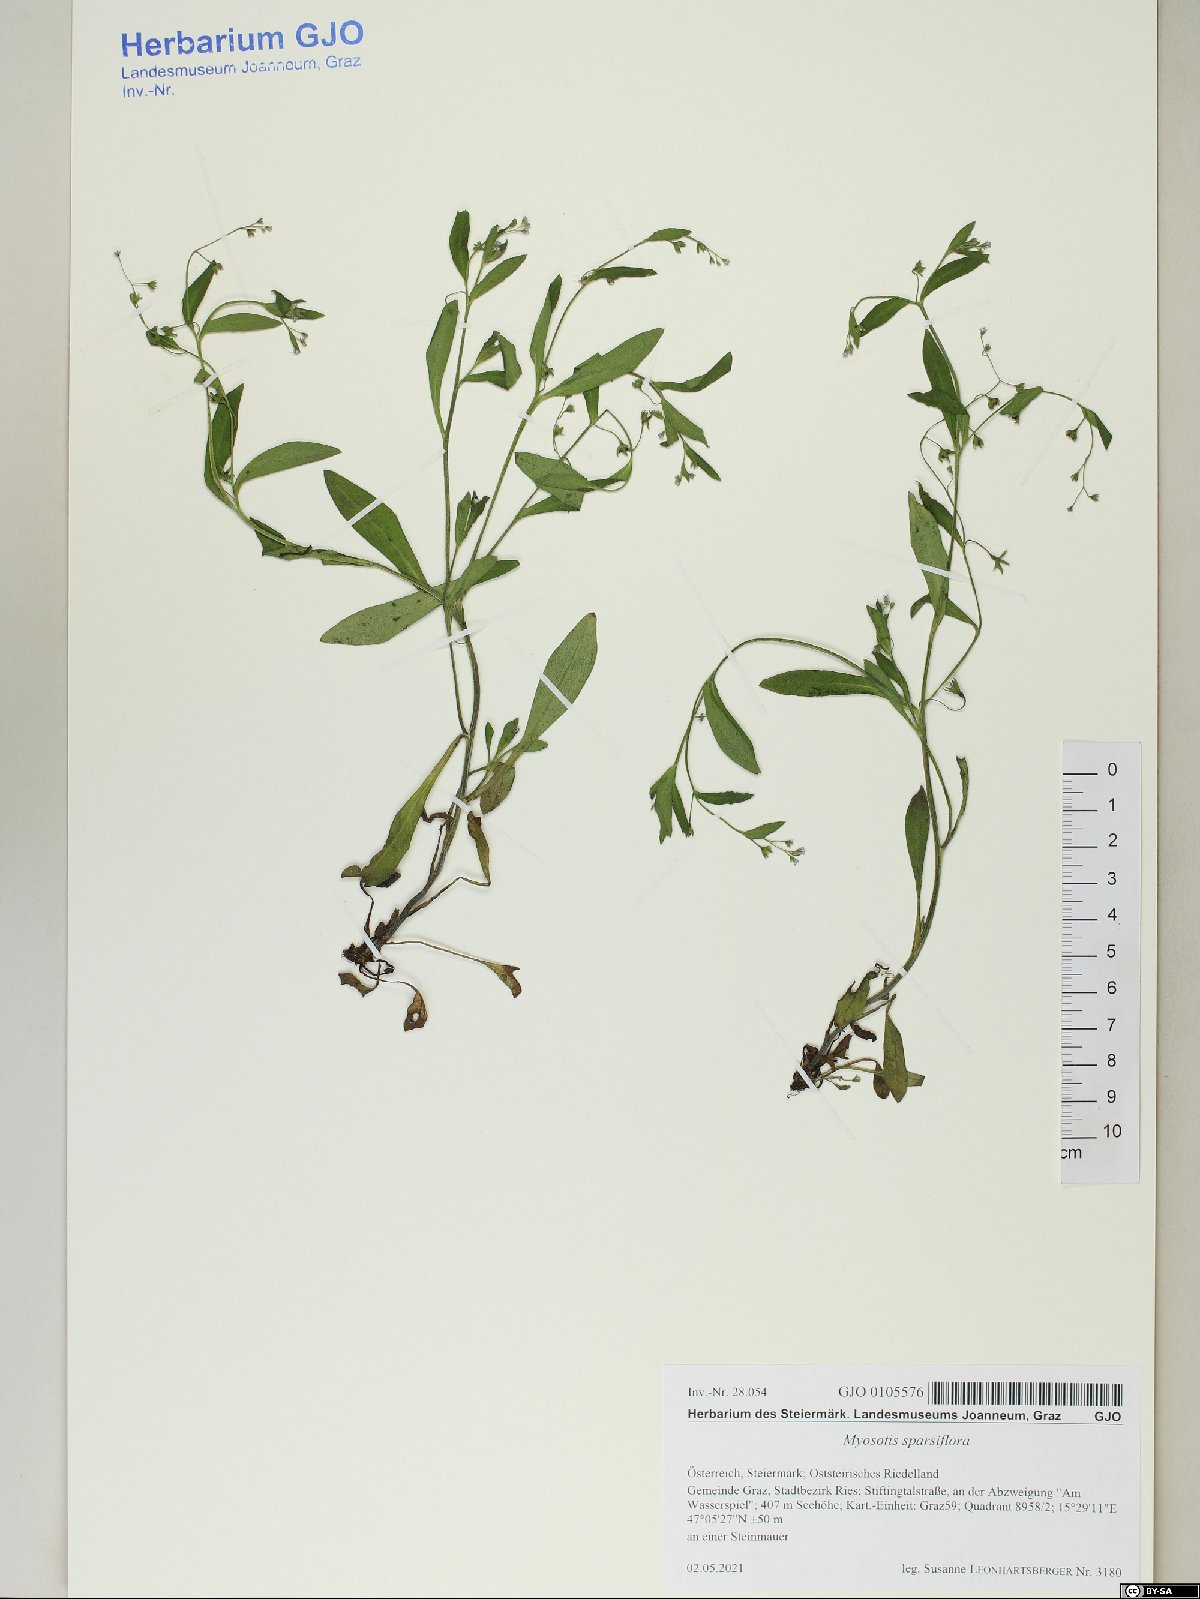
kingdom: Plantae
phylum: Tracheophyta
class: Magnoliopsida
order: Boraginales
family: Boraginaceae
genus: Myosotis
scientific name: Myosotis sparsiflora
